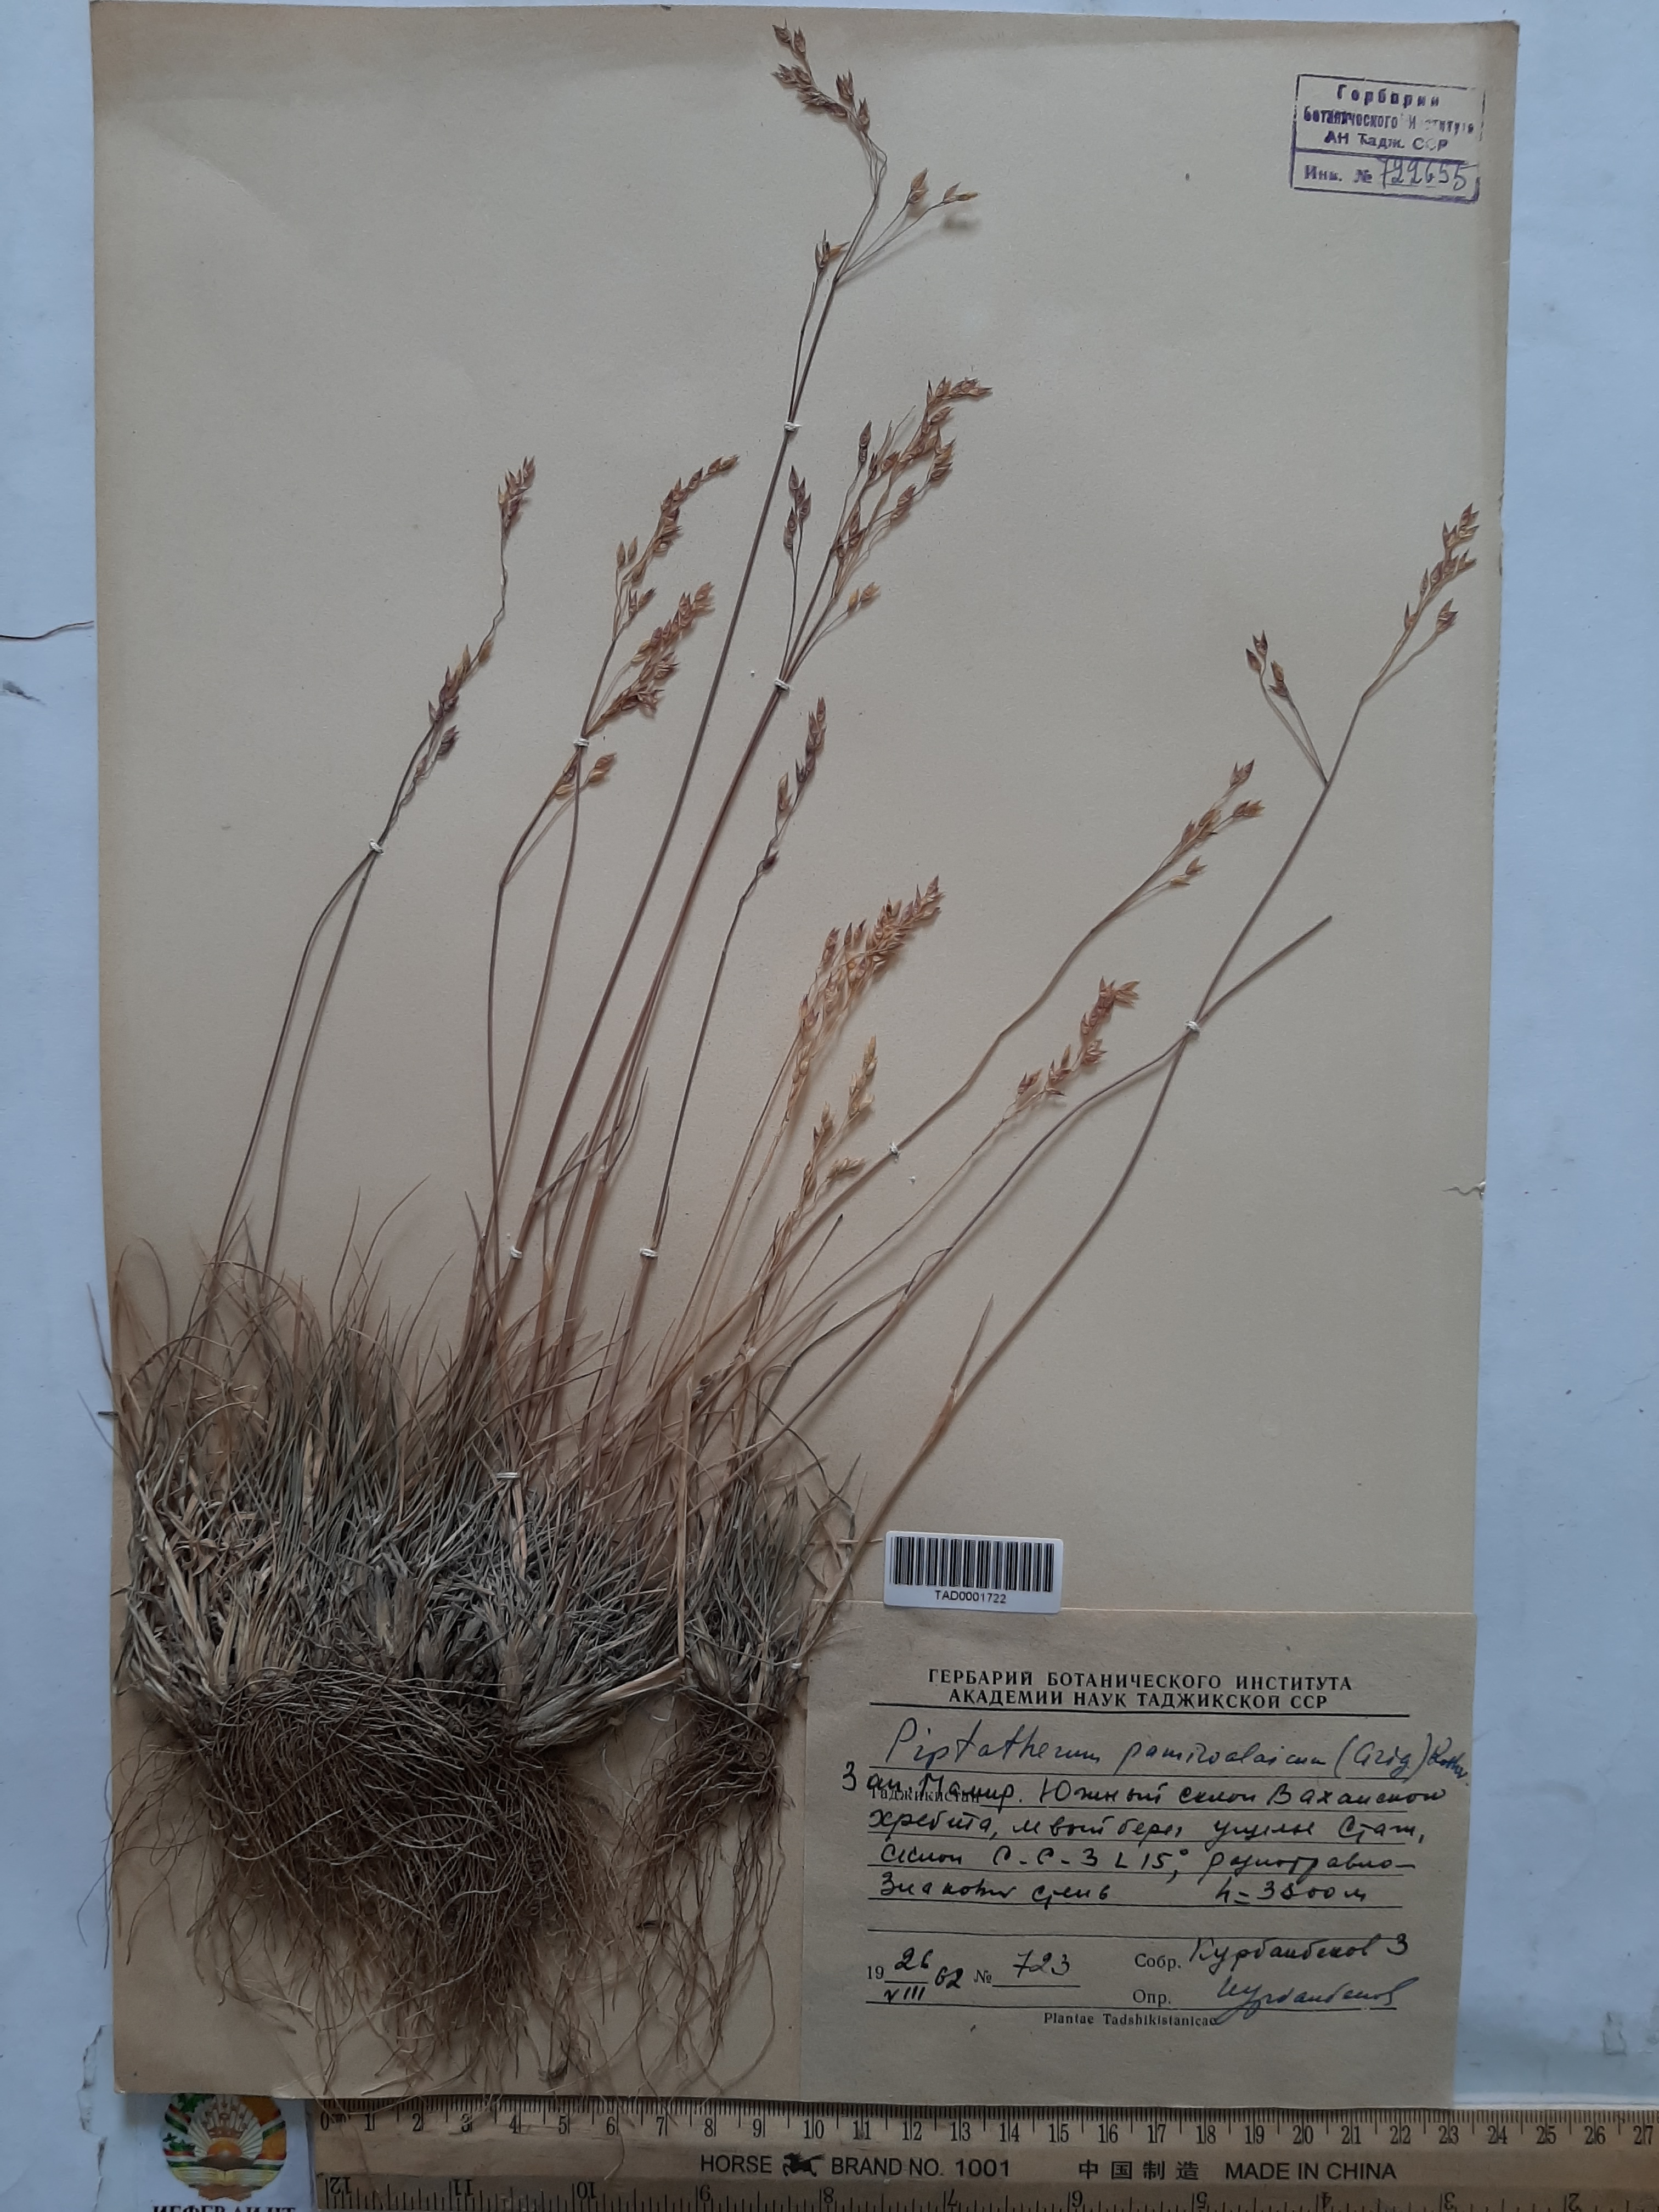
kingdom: Plantae
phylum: Tracheophyta
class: Liliopsida
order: Poales
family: Poaceae
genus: Piptatherum
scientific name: Piptatherum pamiralaicum
